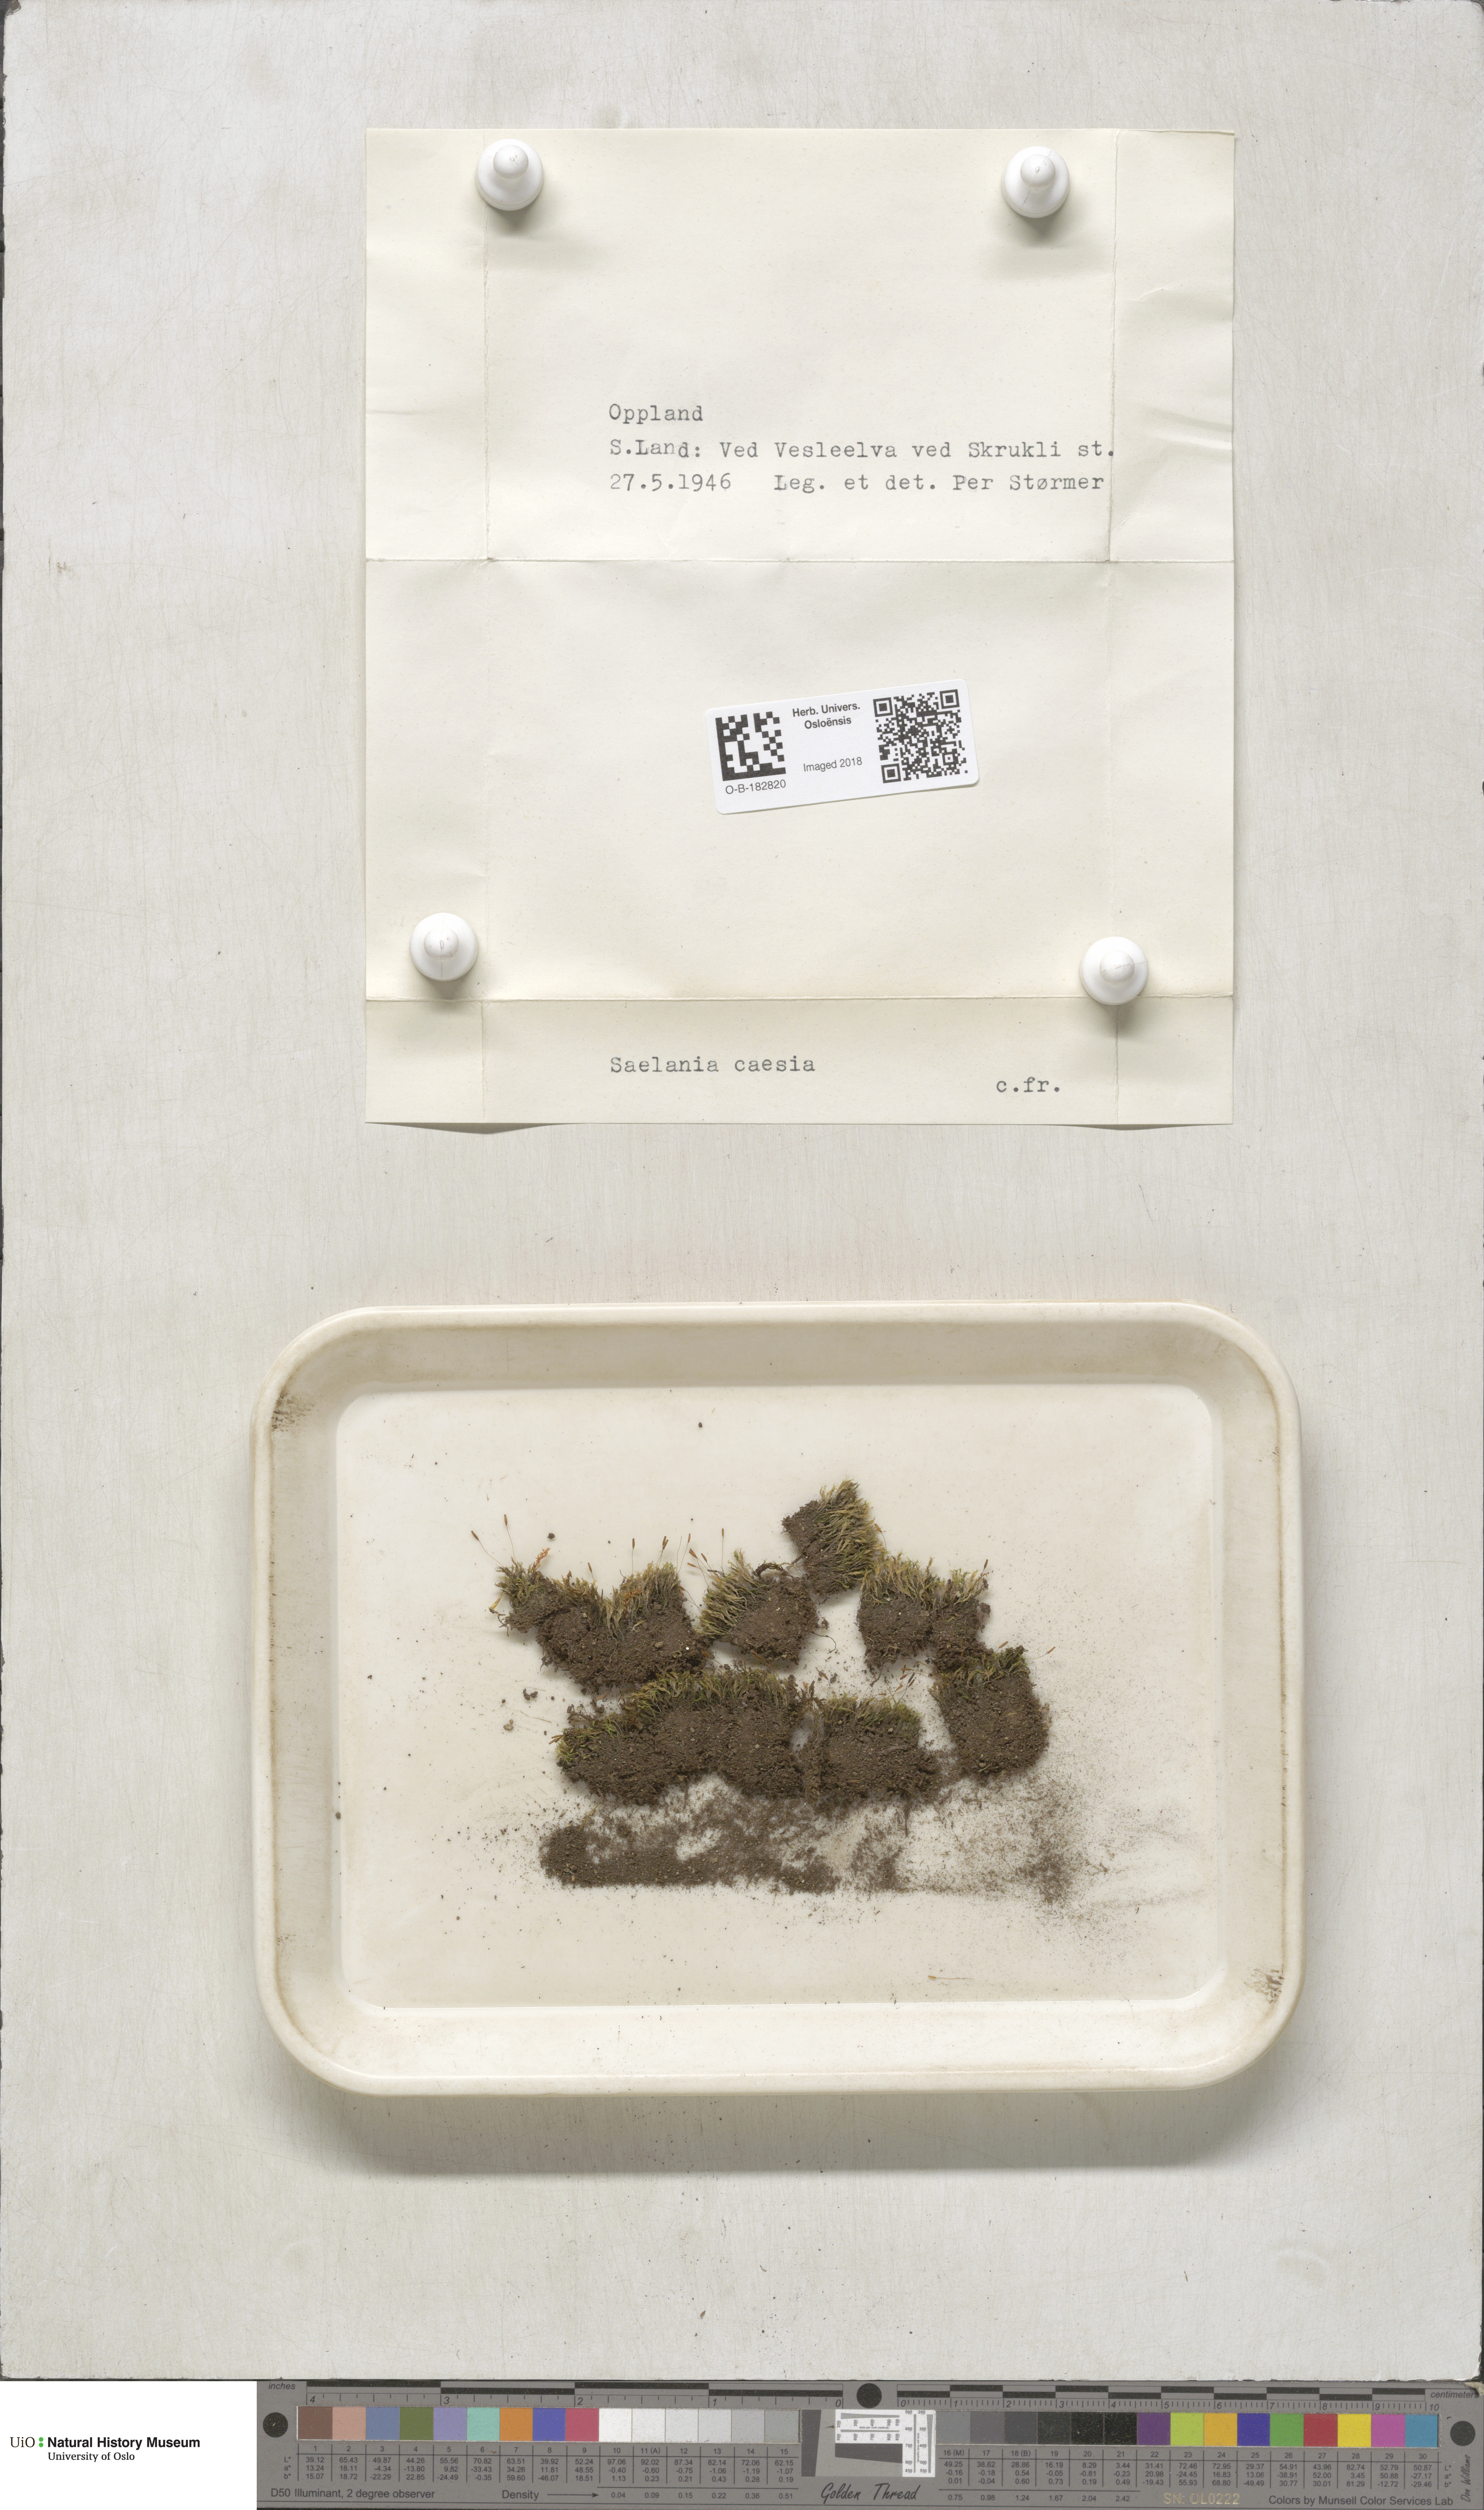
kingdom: Plantae
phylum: Bryophyta
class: Bryopsida
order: Grimmiales
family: Saelaniaceae
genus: Saelania
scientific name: Saelania glaucescens
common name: Blue dew-moss
